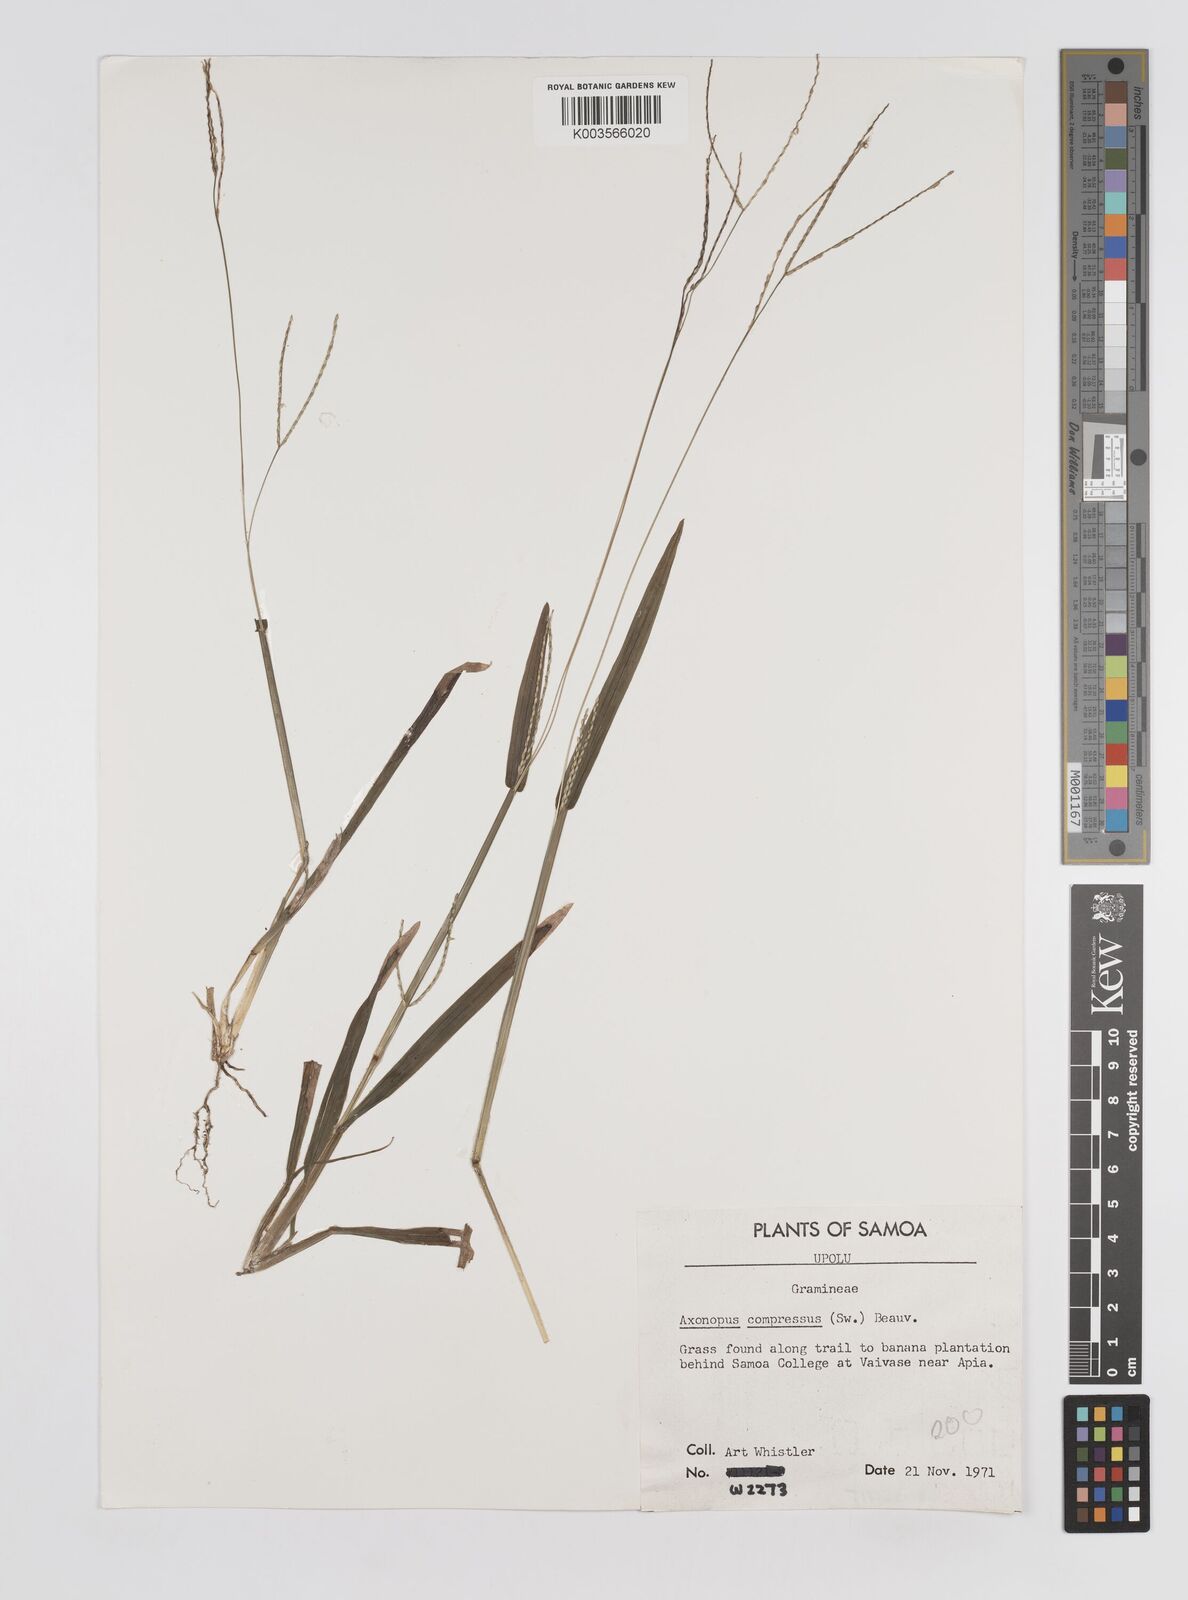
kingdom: Plantae
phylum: Tracheophyta
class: Liliopsida
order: Poales
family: Poaceae
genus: Axonopus
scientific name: Axonopus compressus
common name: American carpet grass
